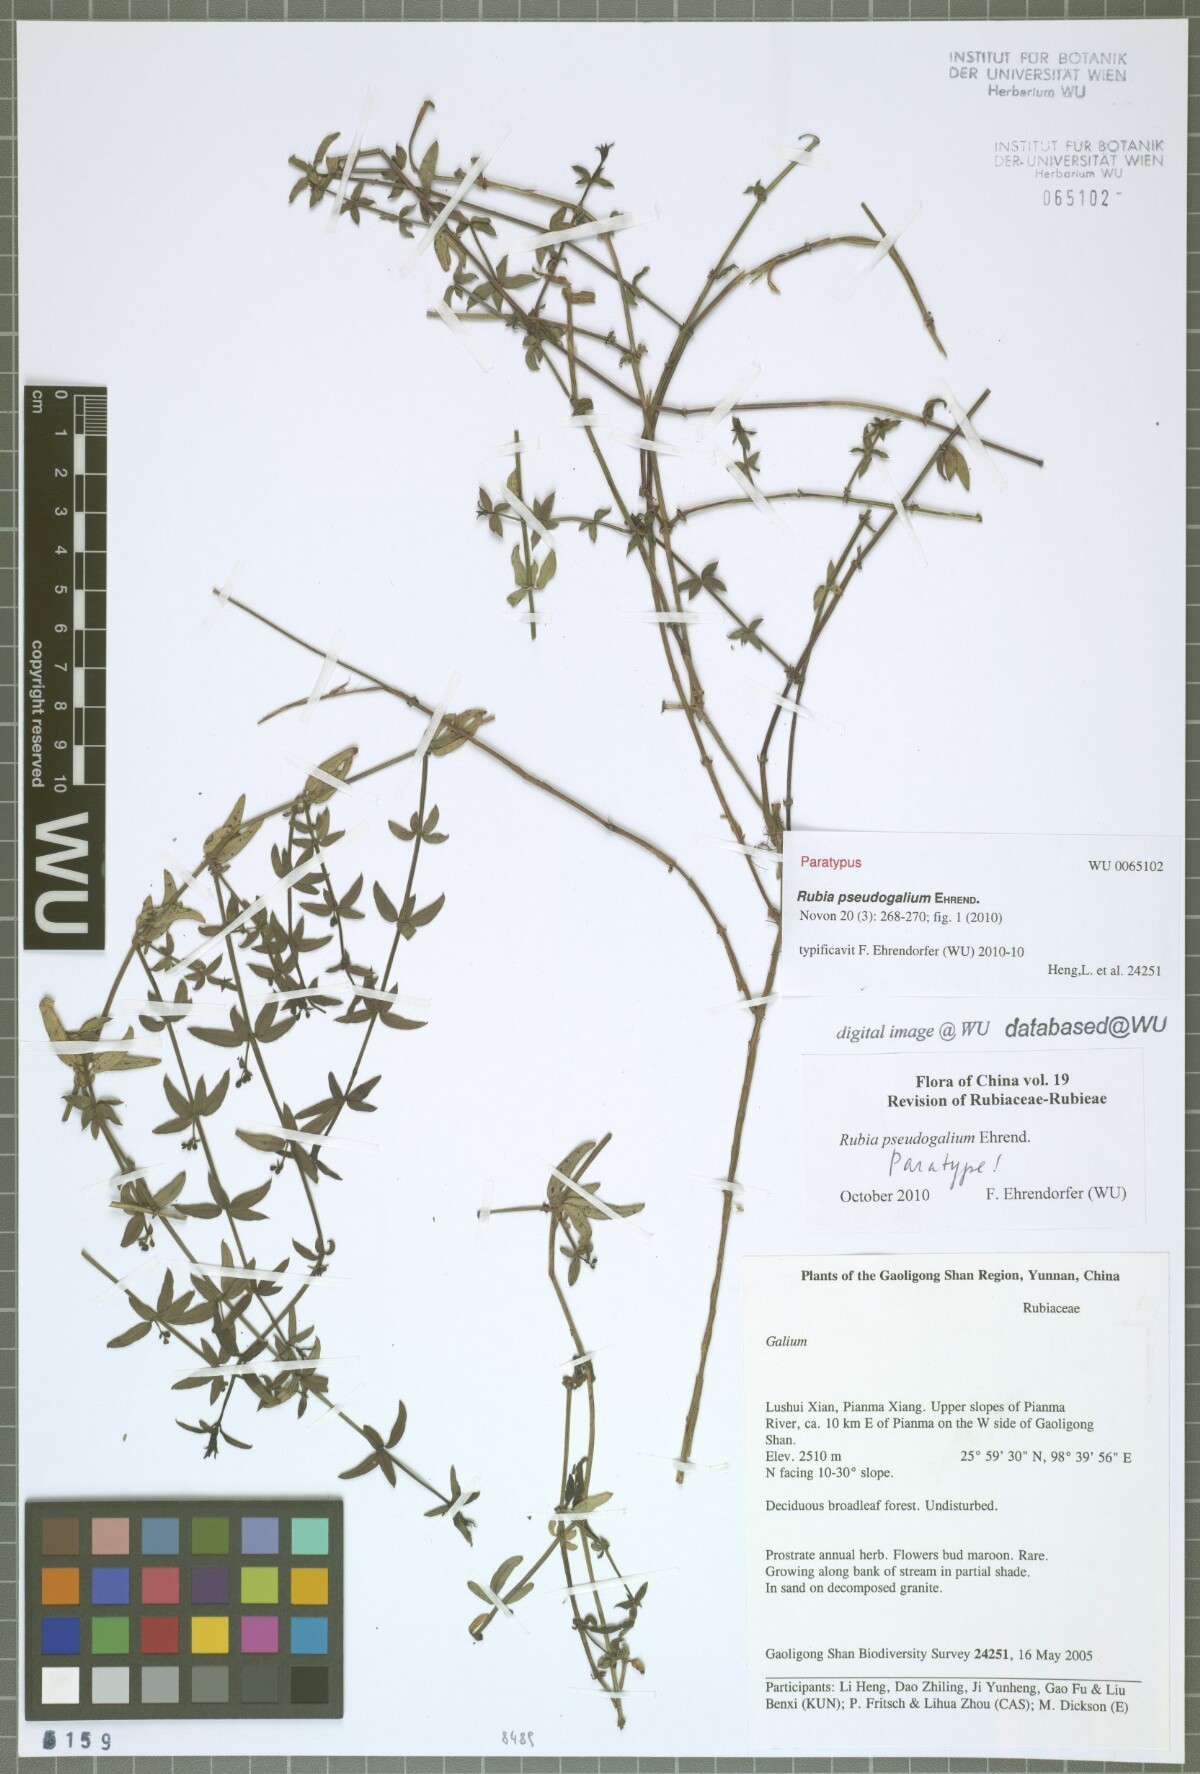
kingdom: Plantae
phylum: Tracheophyta
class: Magnoliopsida
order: Gentianales
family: Rubiaceae
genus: Rubia
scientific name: Rubia pseudogalium
